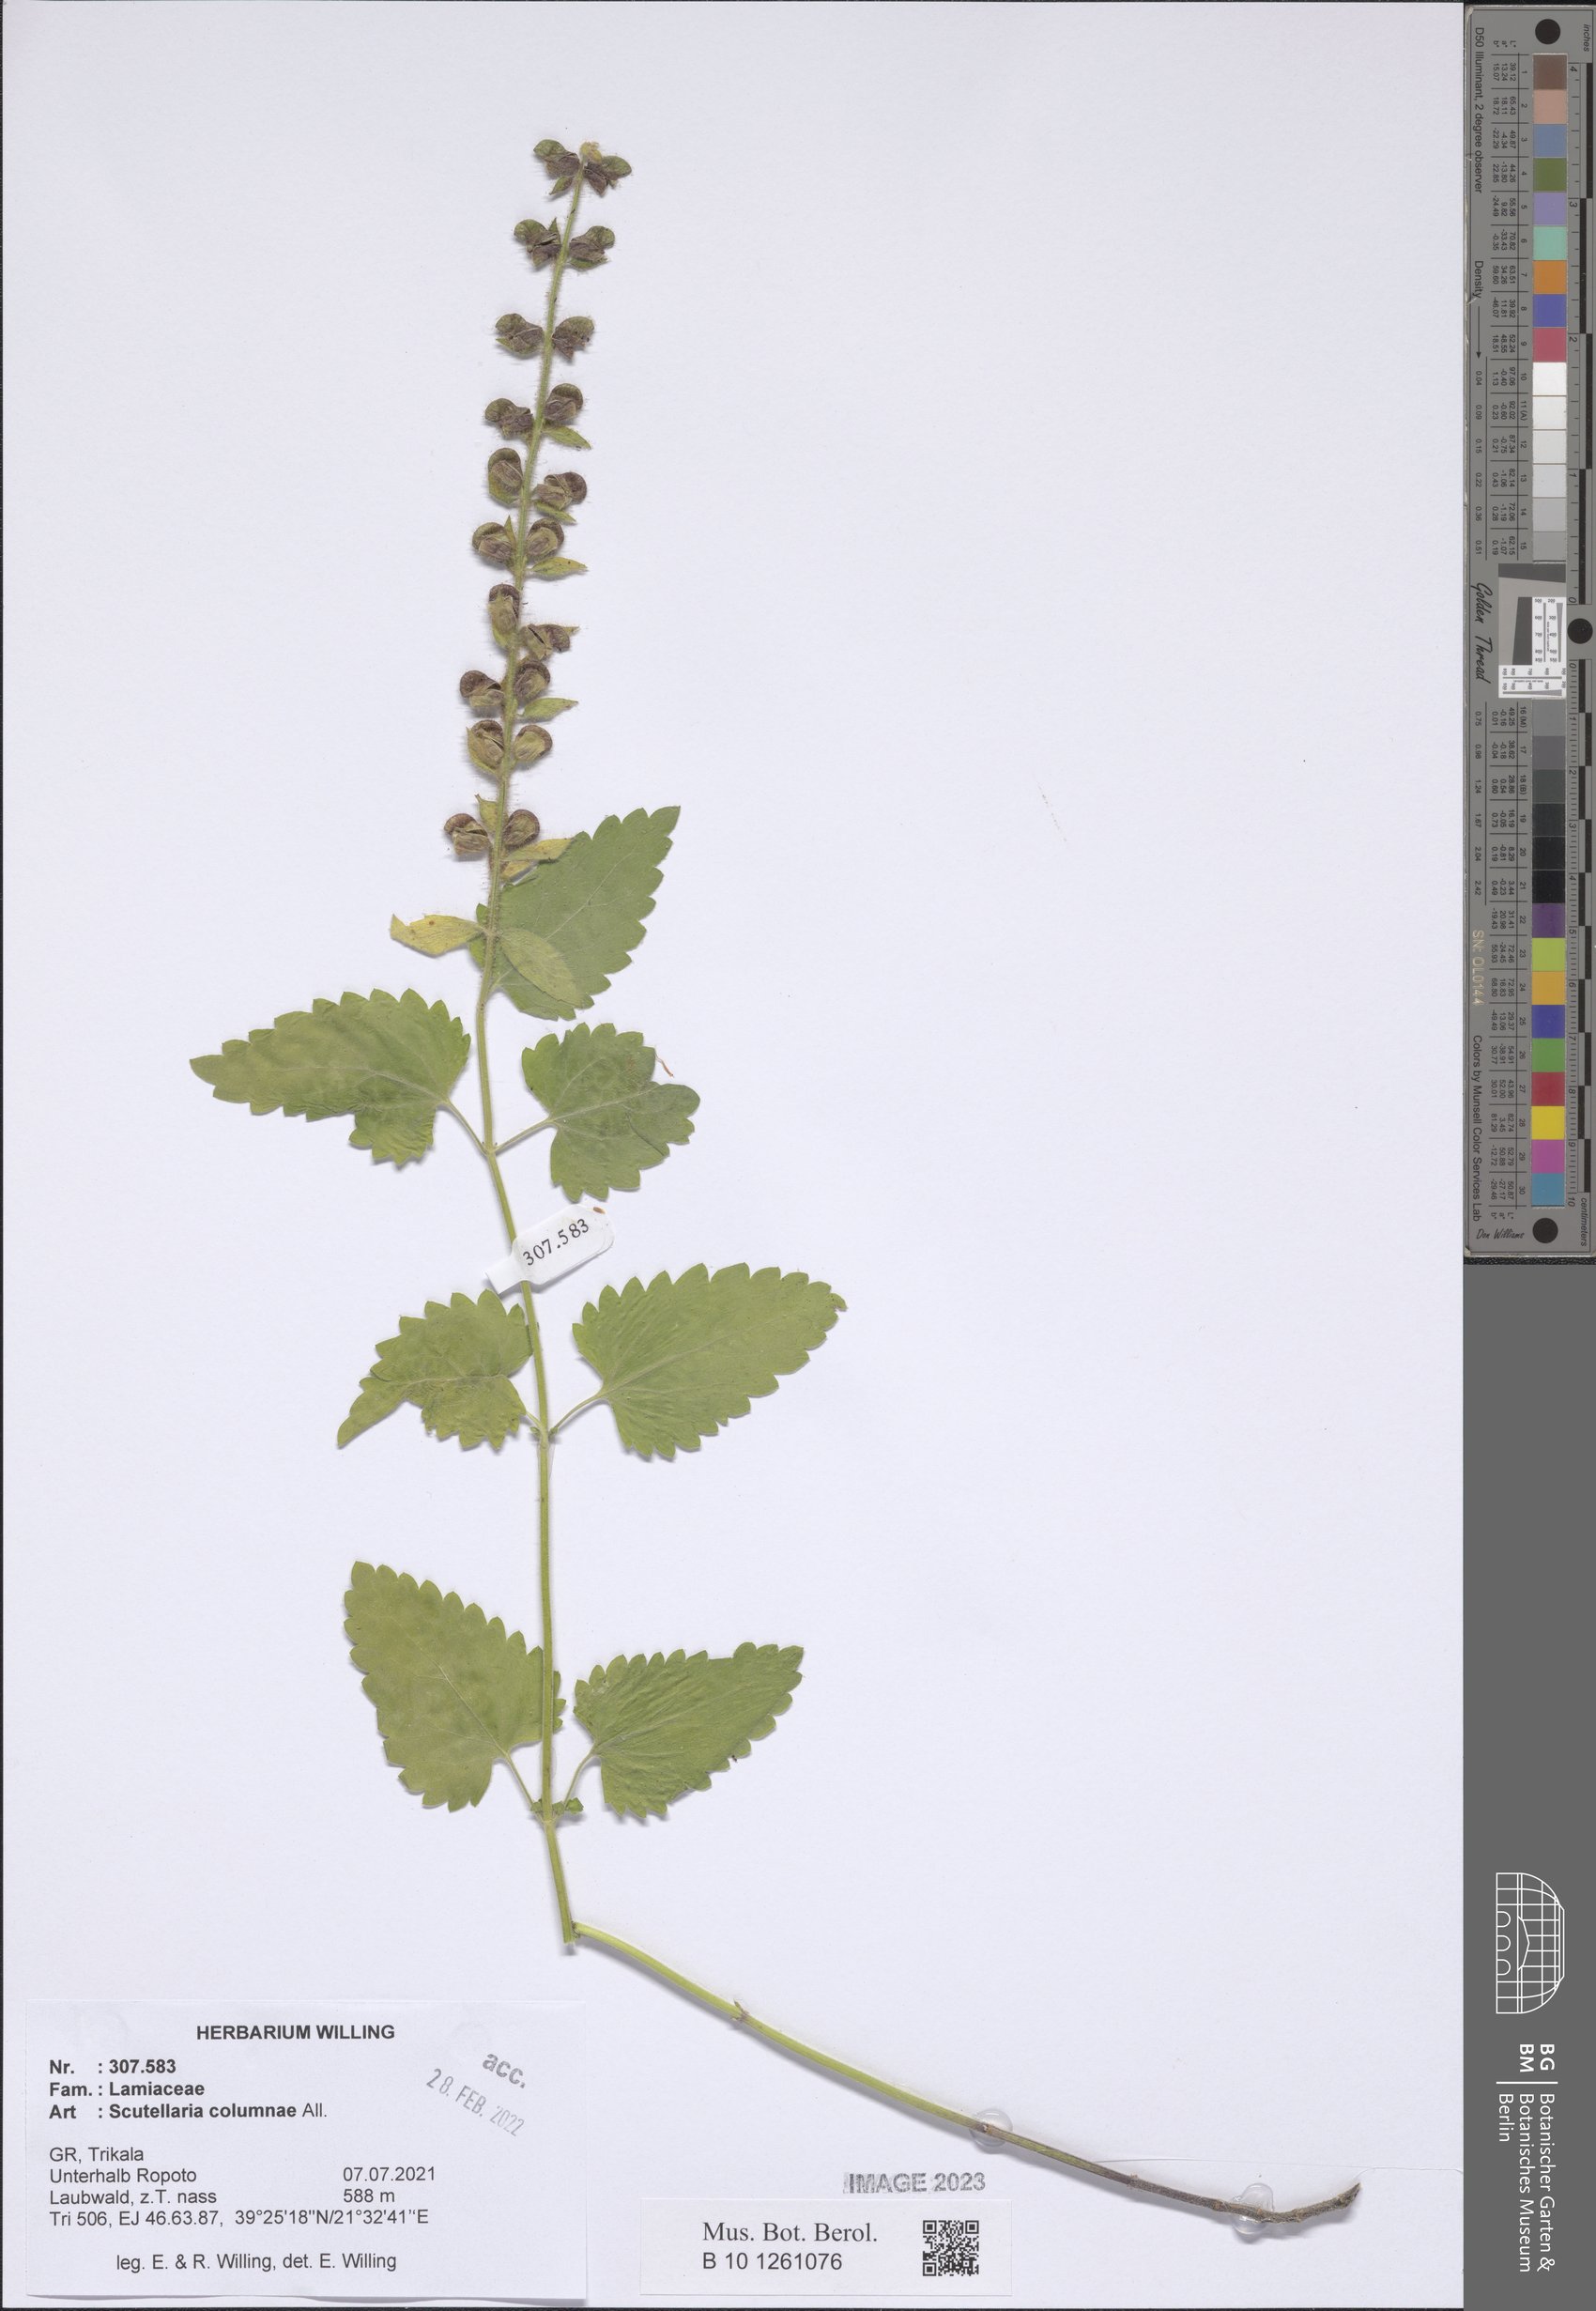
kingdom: Plantae
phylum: Tracheophyta
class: Magnoliopsida
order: Lamiales
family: Lamiaceae
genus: Scutellaria
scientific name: Scutellaria columnae
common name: Large skullcap
